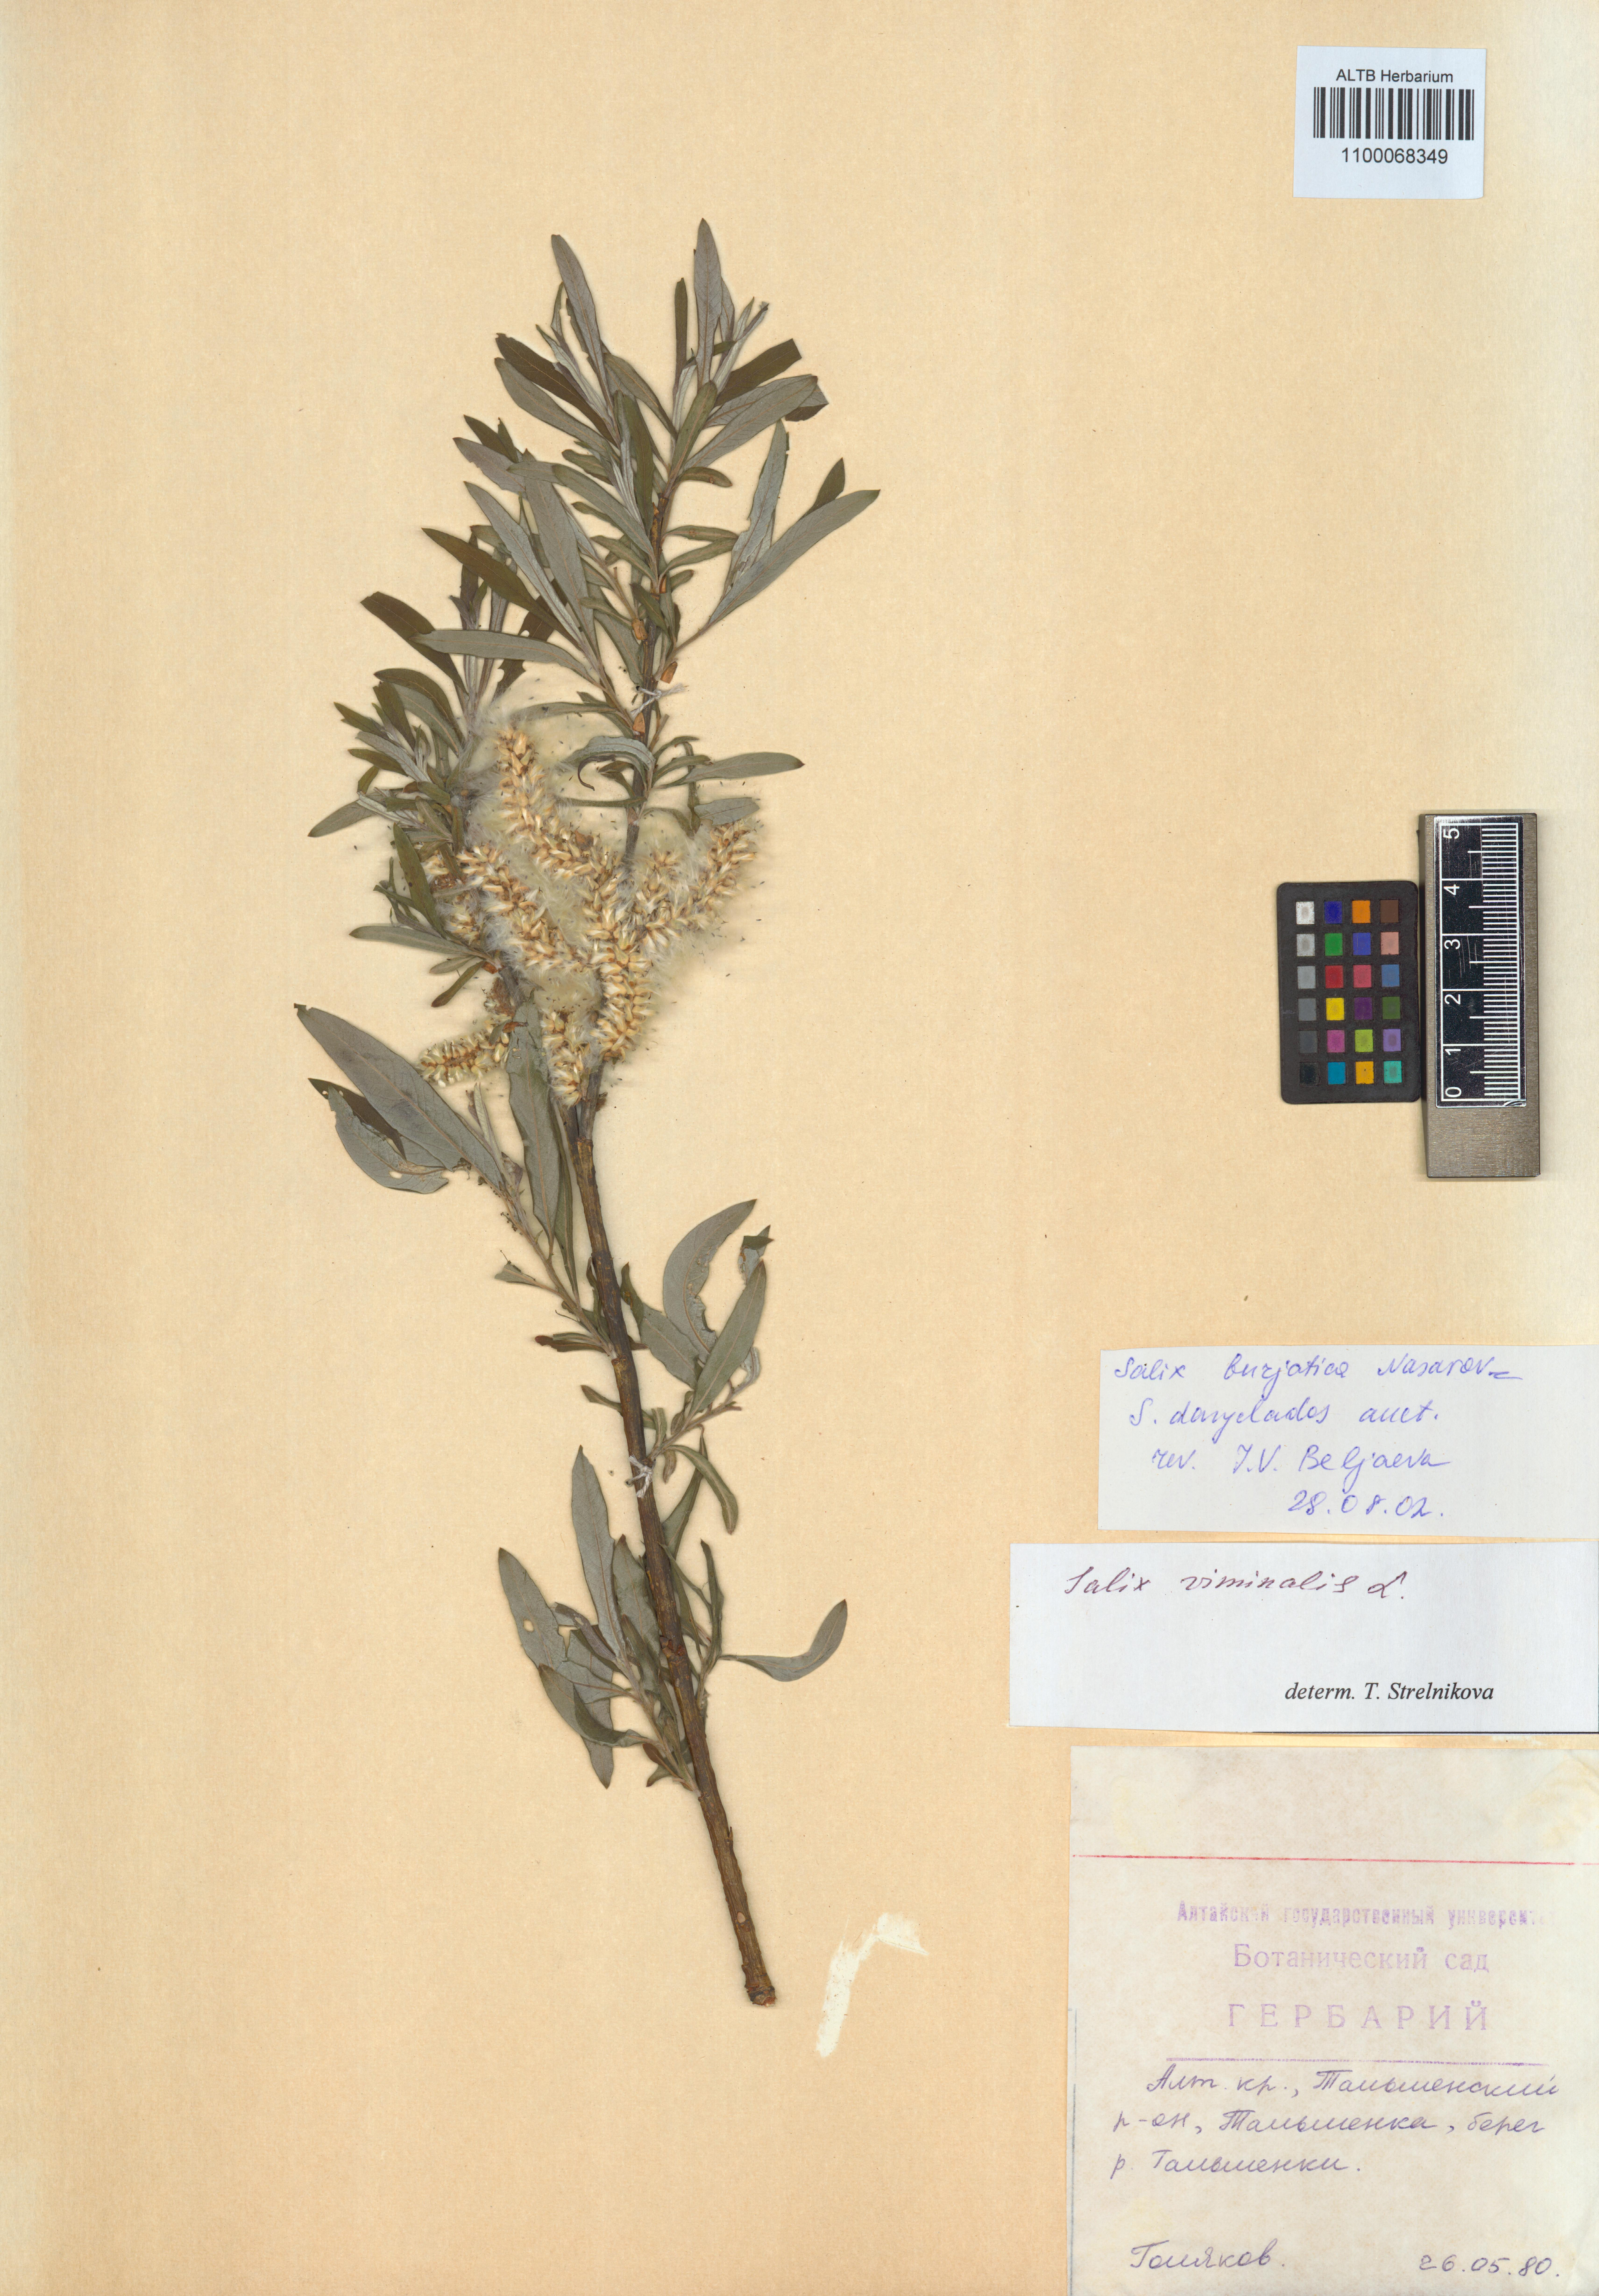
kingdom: Plantae
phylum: Tracheophyta
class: Magnoliopsida
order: Malpighiales
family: Salicaceae
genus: Salix
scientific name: Salix gmelinii
